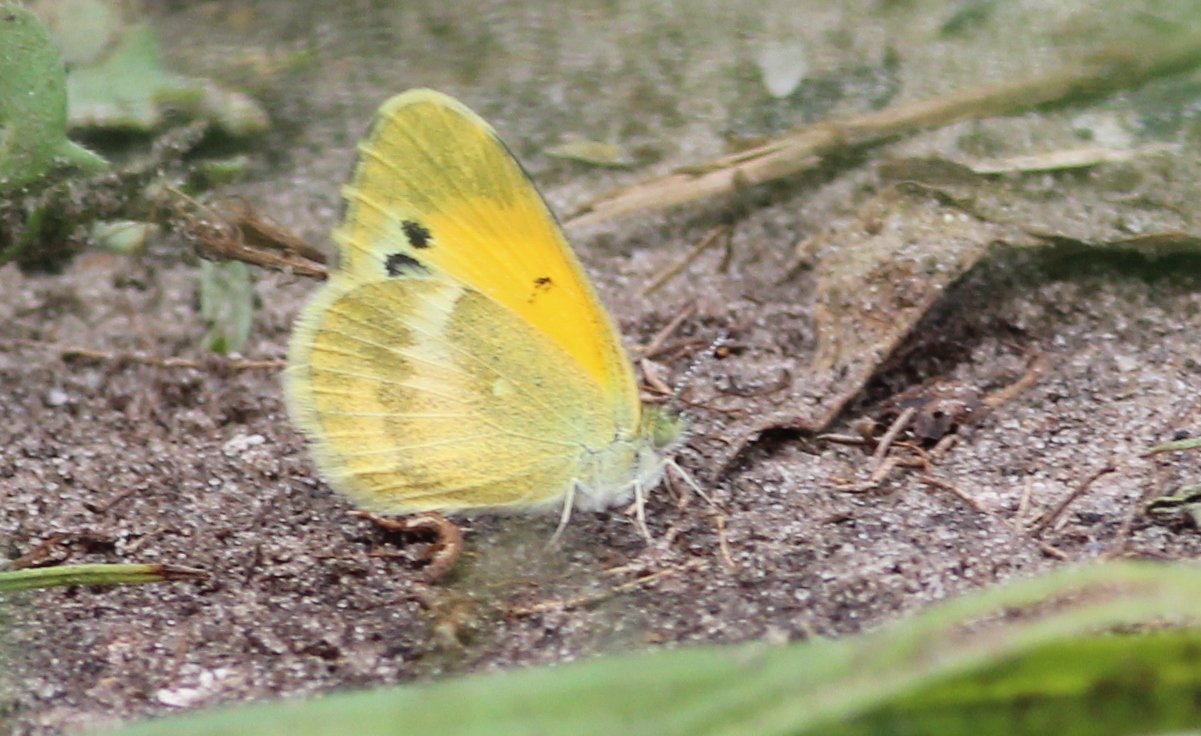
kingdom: Animalia
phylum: Arthropoda
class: Insecta
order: Lepidoptera
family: Pieridae
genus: Nathalis
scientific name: Nathalis iole
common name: Dainty Sulphur
